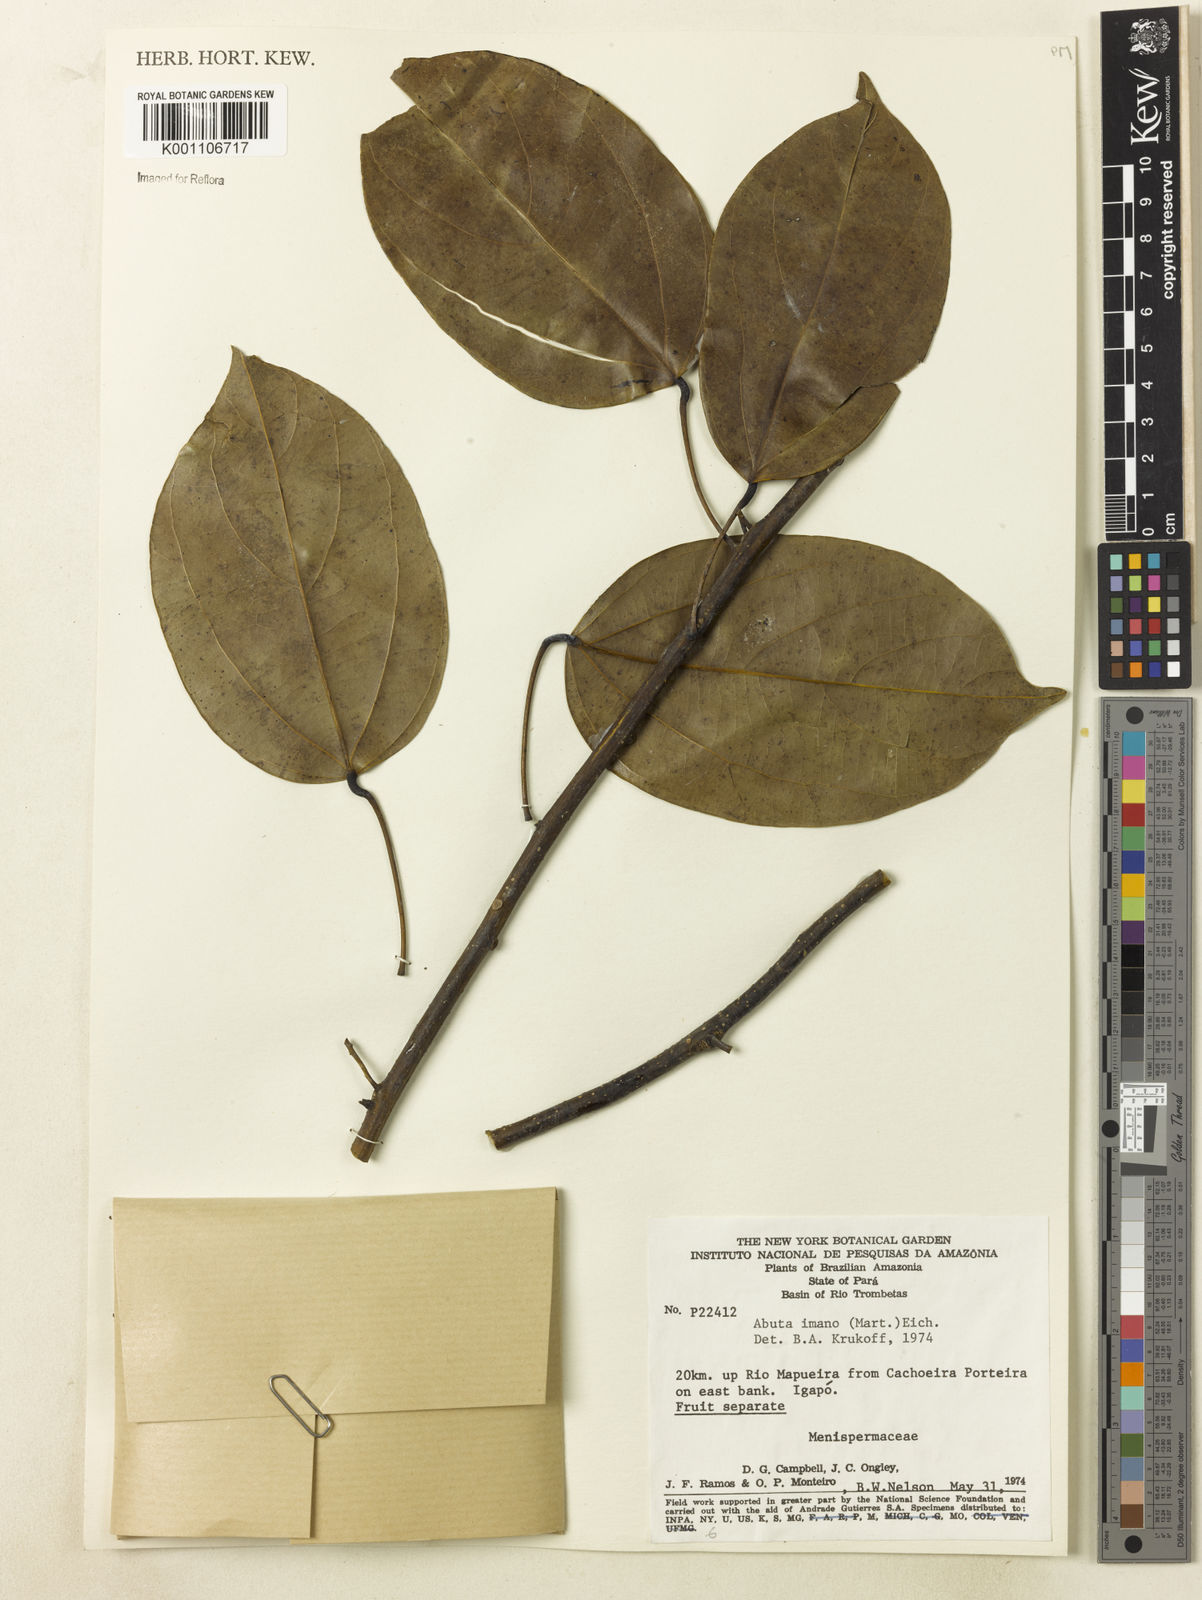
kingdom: Plantae
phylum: Tracheophyta
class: Magnoliopsida
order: Ranunculales
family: Menispermaceae
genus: Abuta
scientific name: Abuta imene
